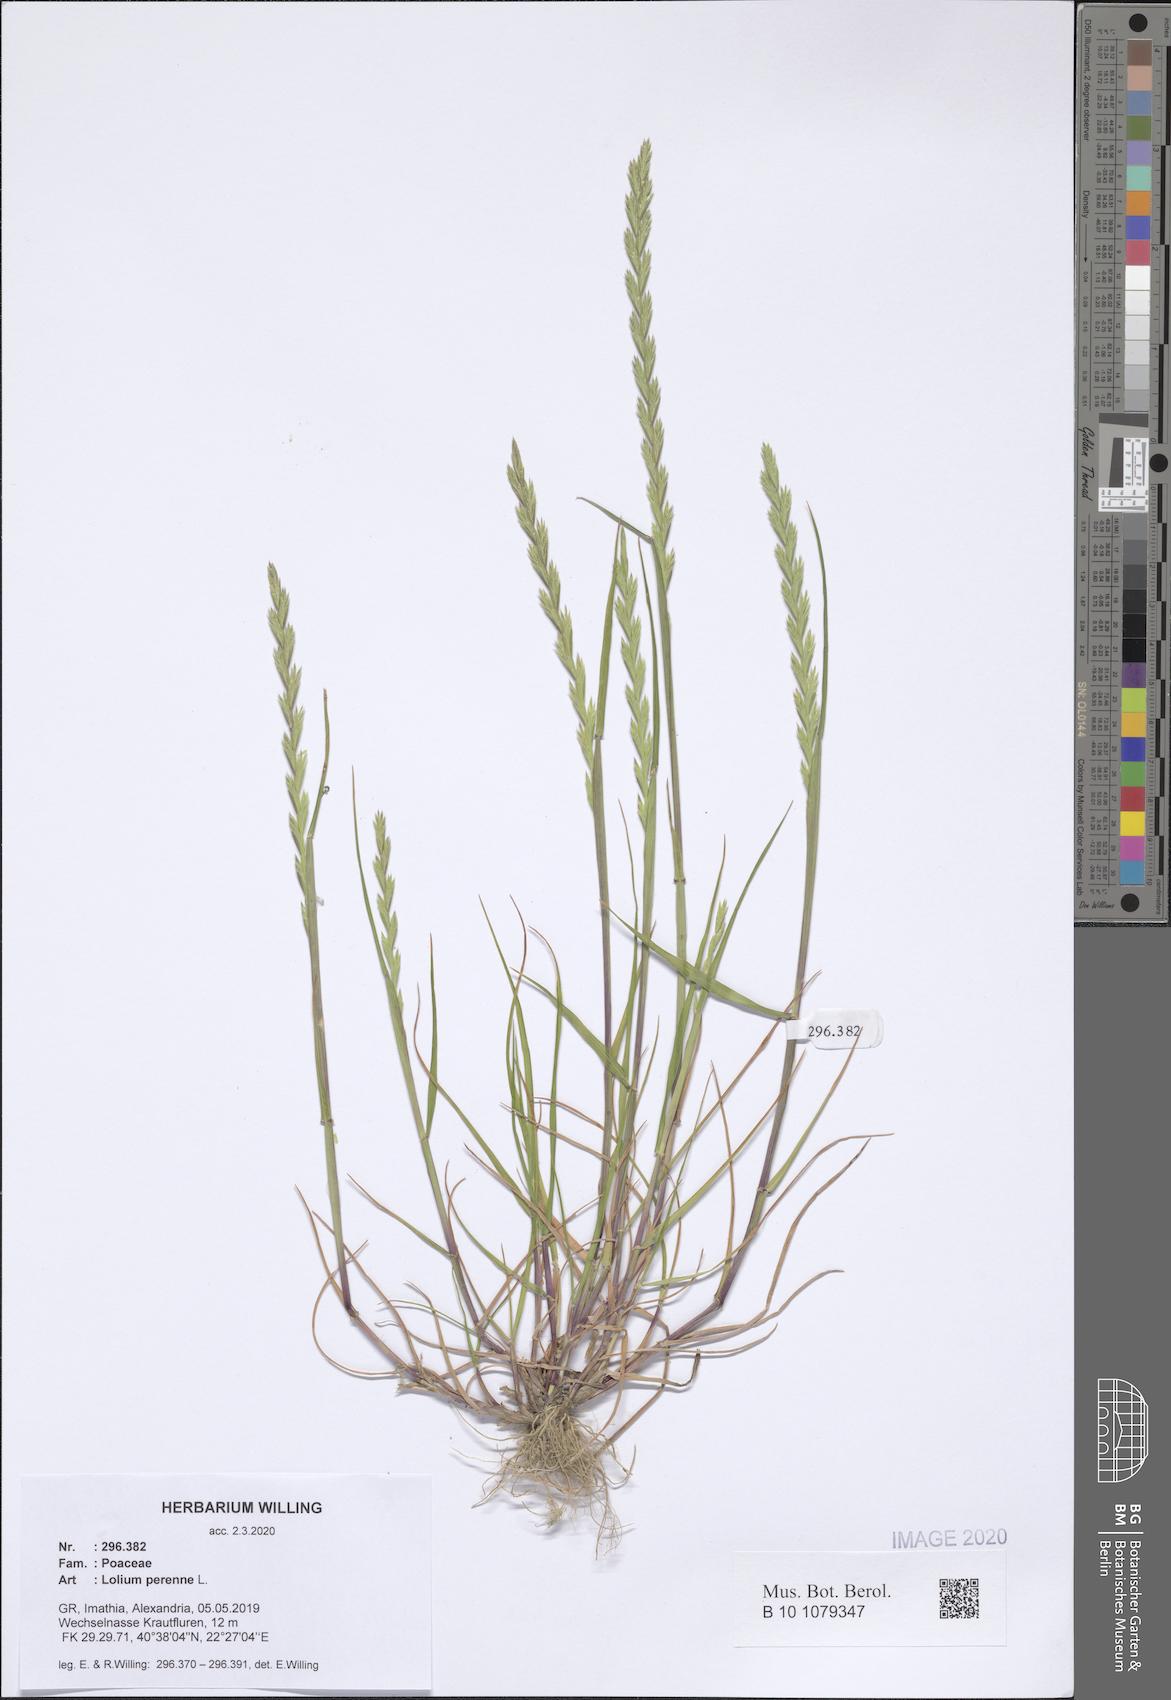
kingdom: Plantae
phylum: Tracheophyta
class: Liliopsida
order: Poales
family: Poaceae
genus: Lolium
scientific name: Lolium perenne
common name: Perennial ryegrass
